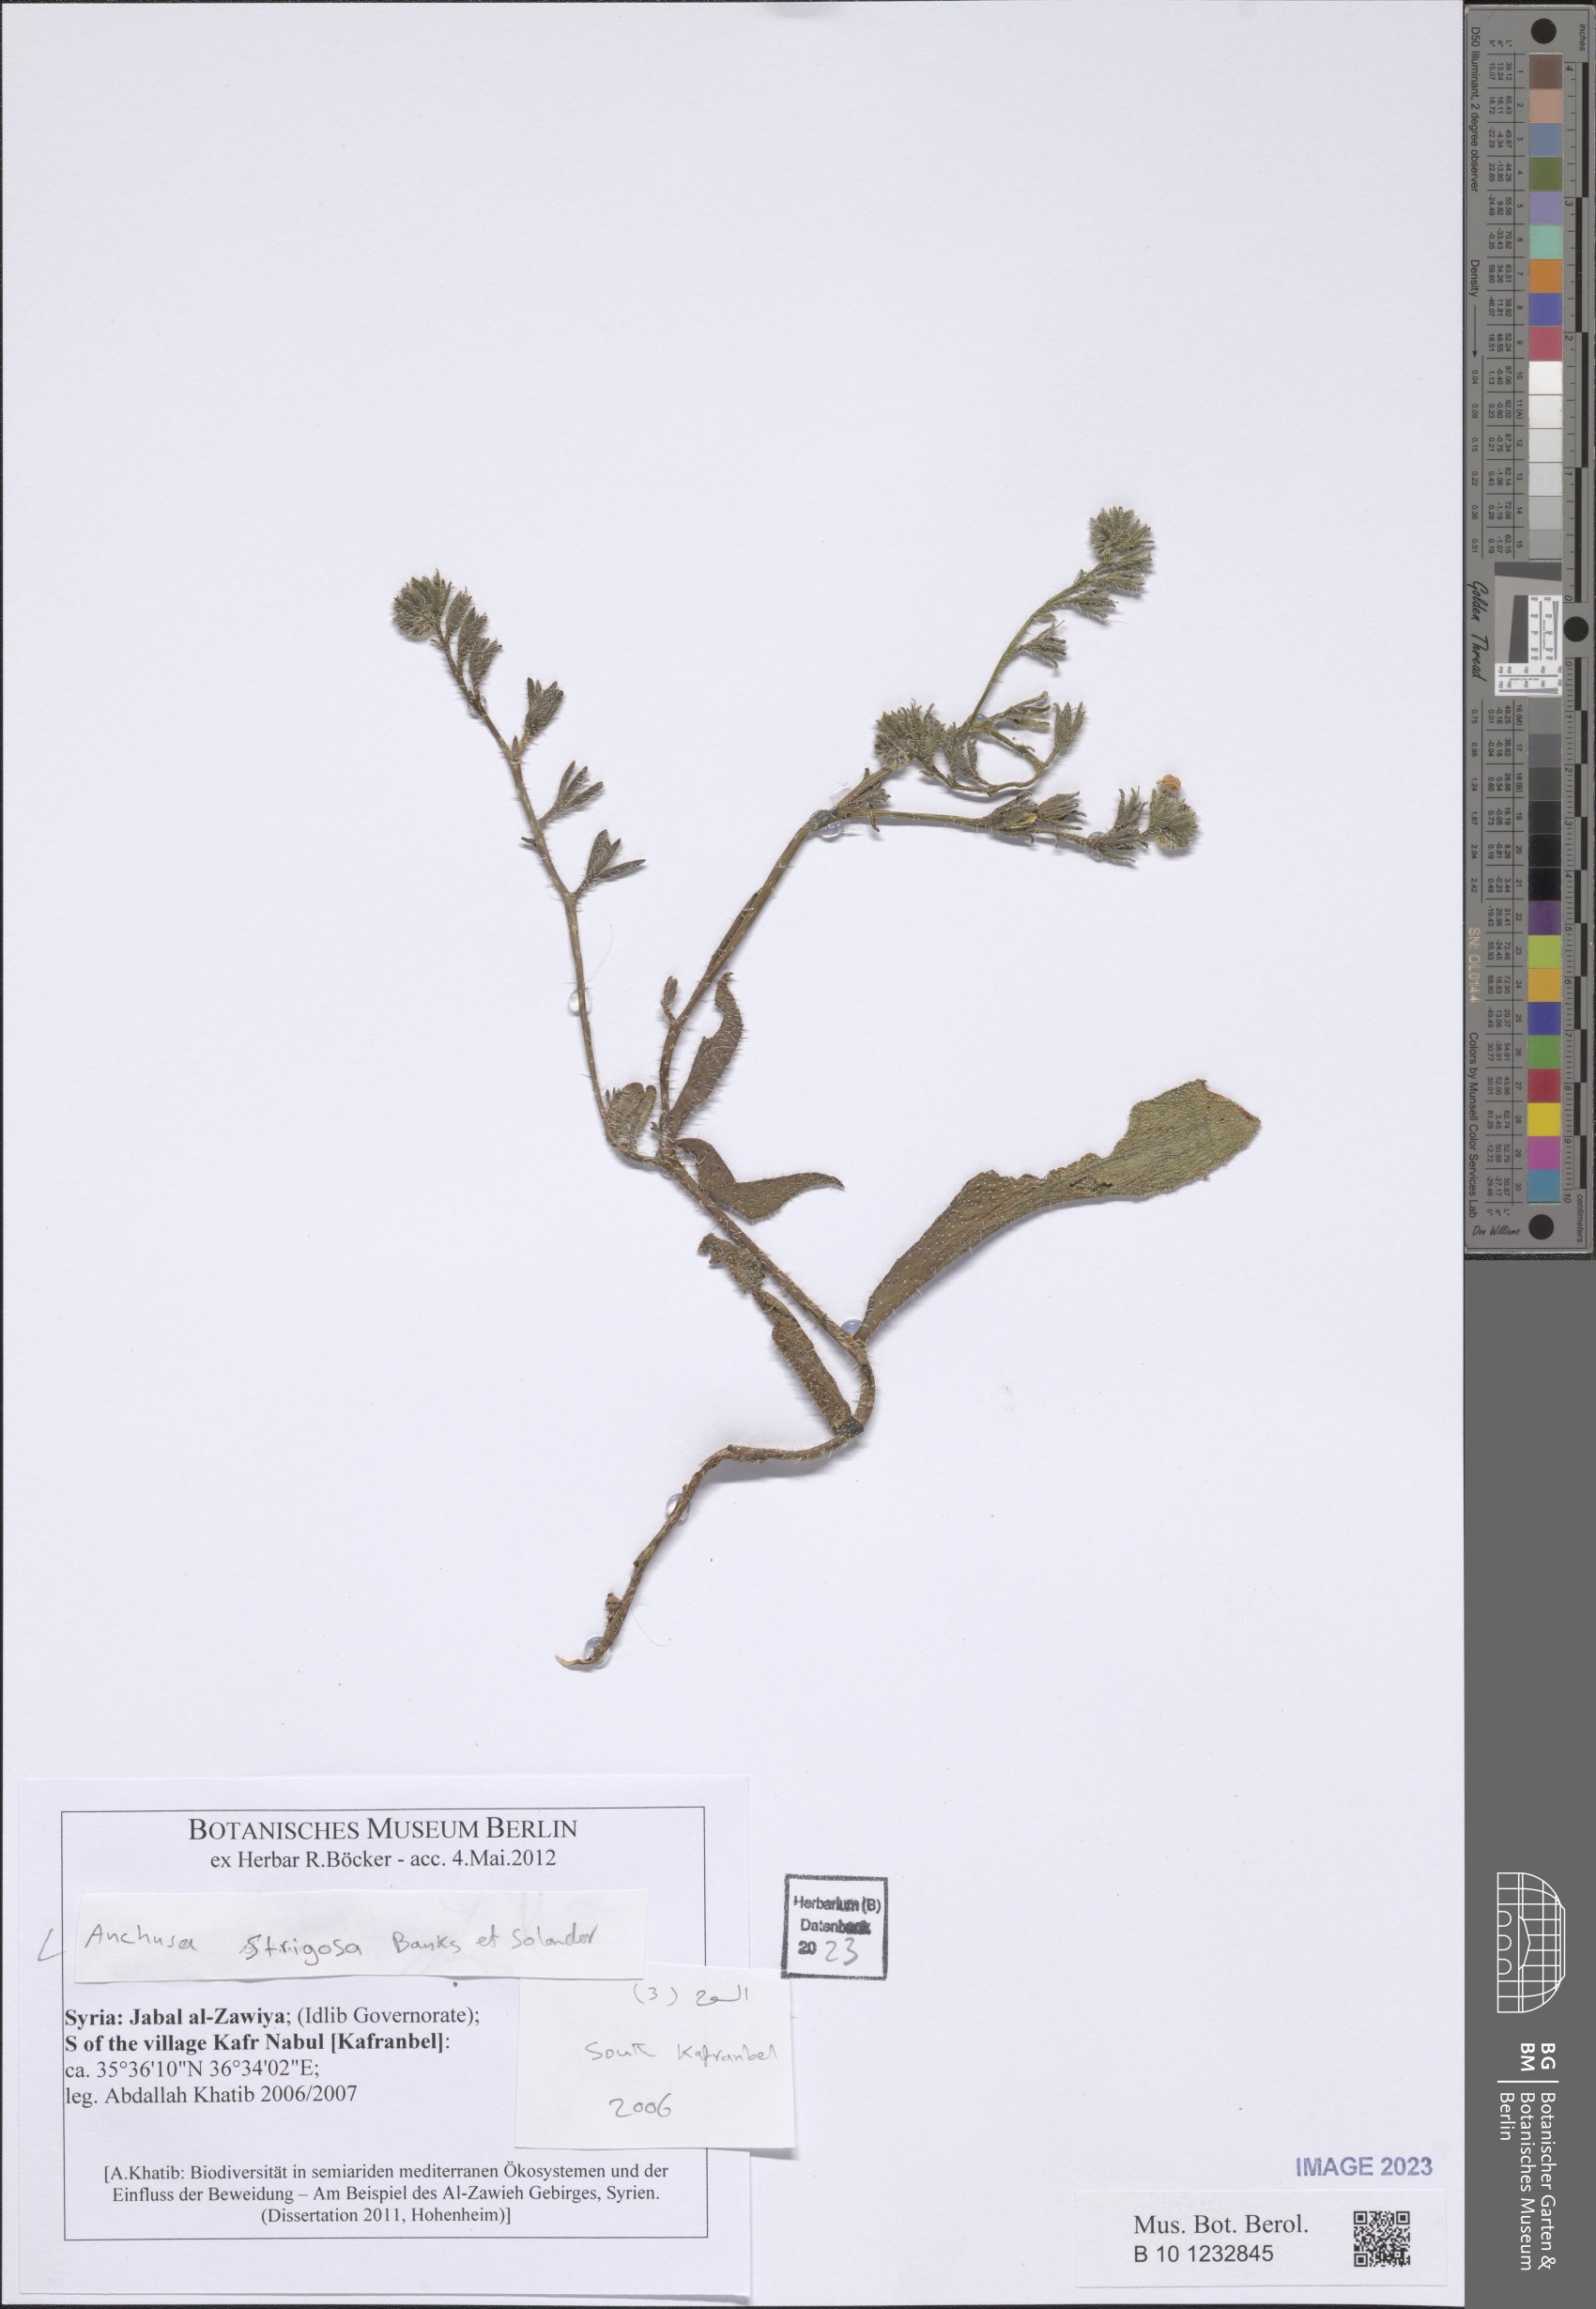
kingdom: Plantae
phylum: Tracheophyta
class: Magnoliopsida
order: Boraginales
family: Boraginaceae
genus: Anchusa
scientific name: Anchusa strigosa
